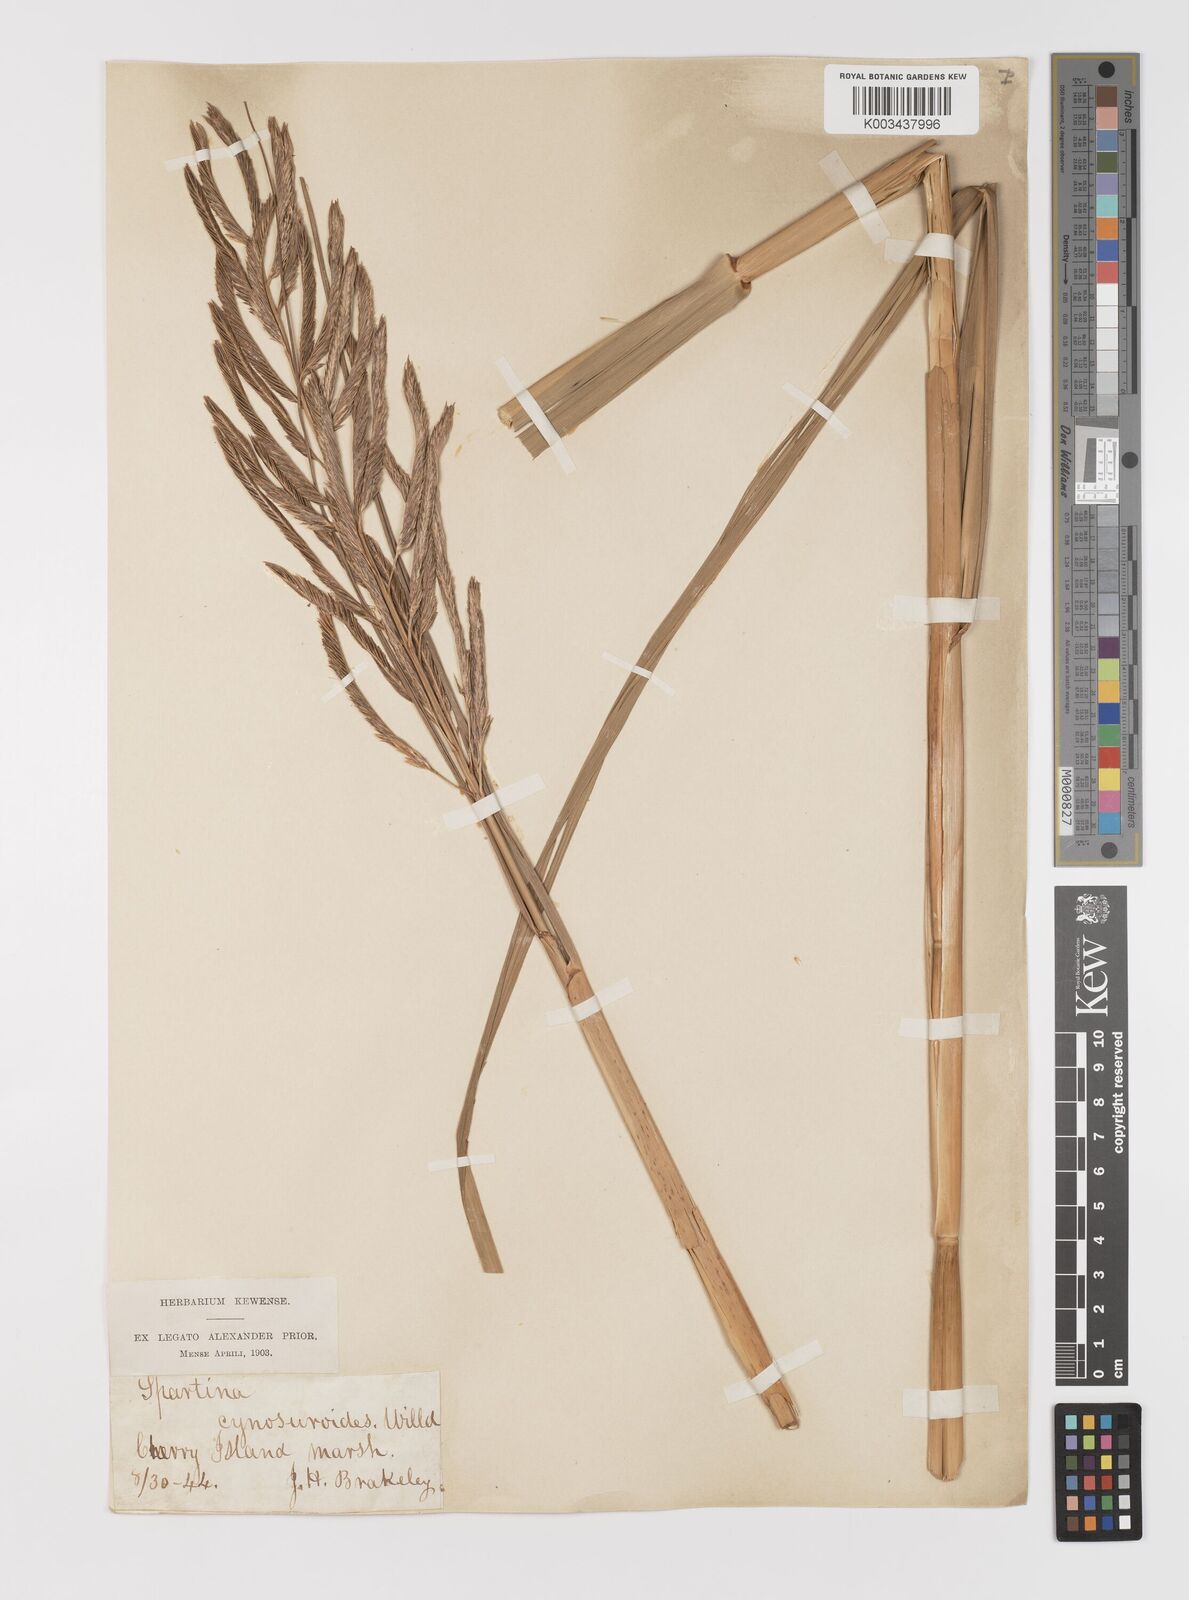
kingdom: Plantae
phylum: Tracheophyta
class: Liliopsida
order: Poales
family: Poaceae
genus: Sporobolus
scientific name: Sporobolus cynosuroides
